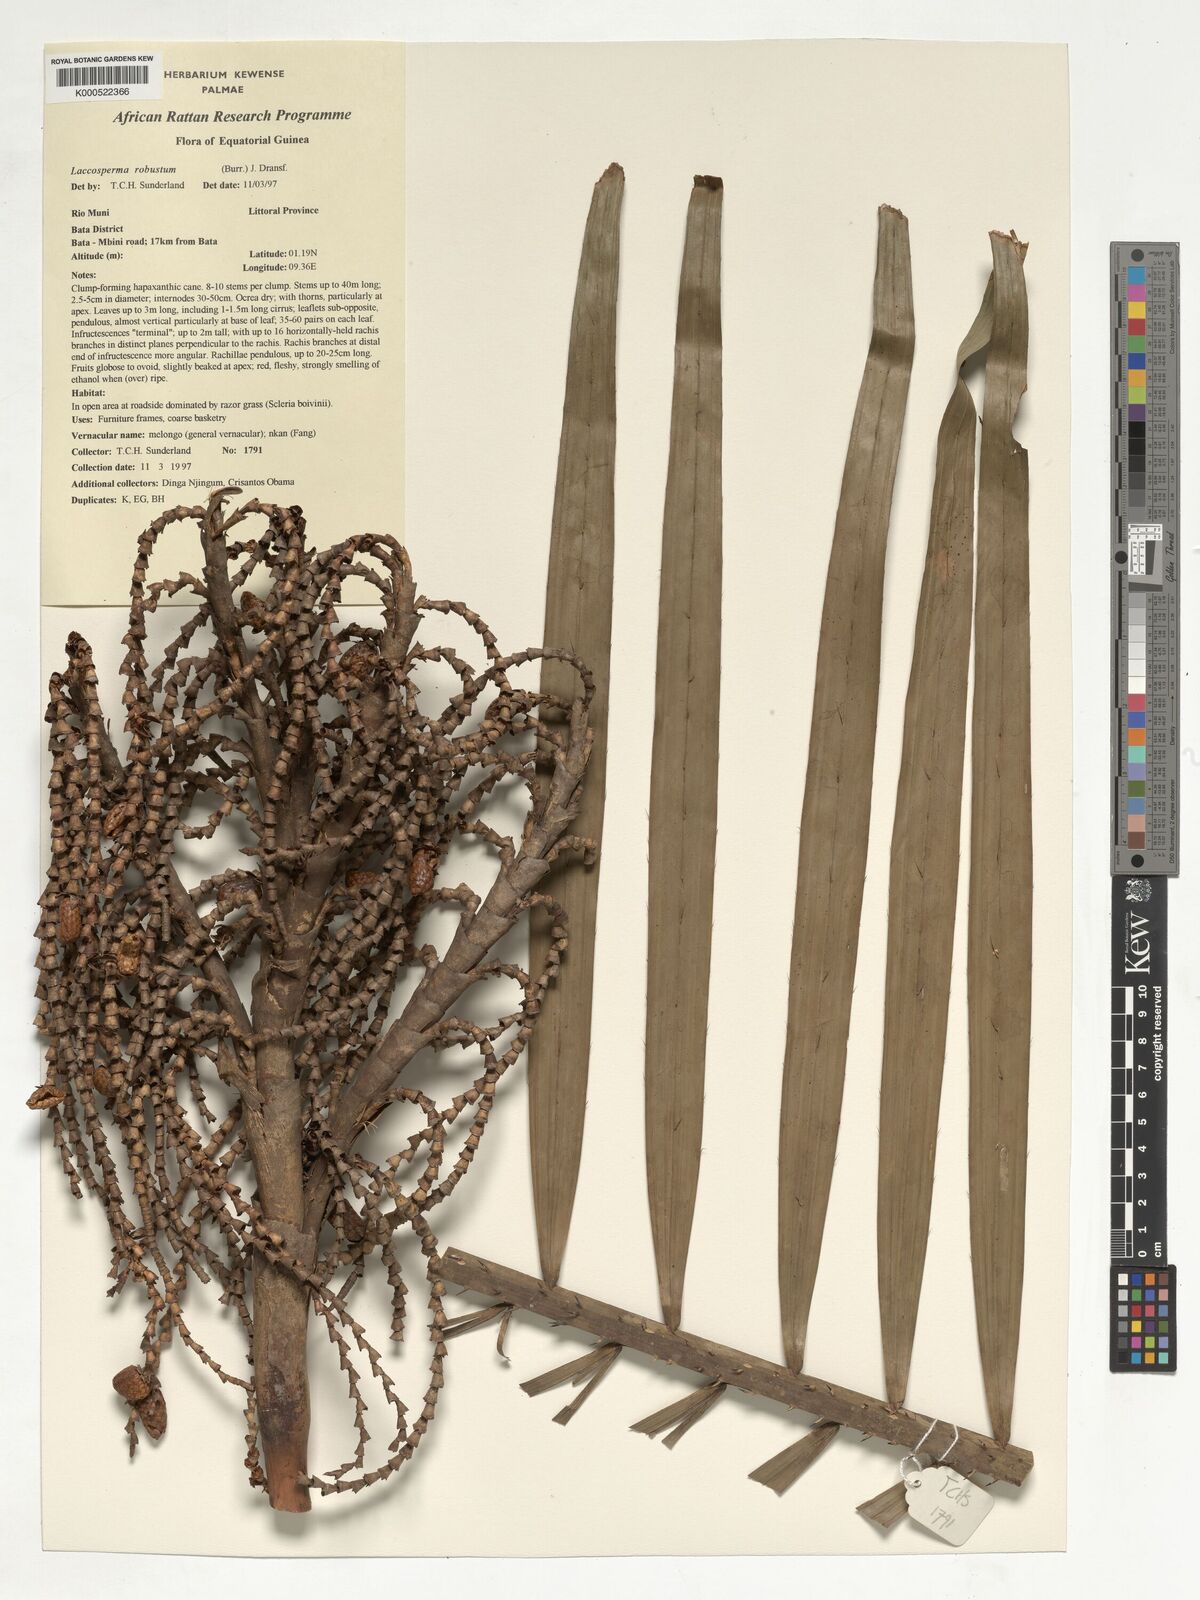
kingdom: Plantae
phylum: Tracheophyta
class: Liliopsida
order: Arecales
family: Arecaceae
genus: Laccosperma
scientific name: Laccosperma robustum
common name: Rattan
